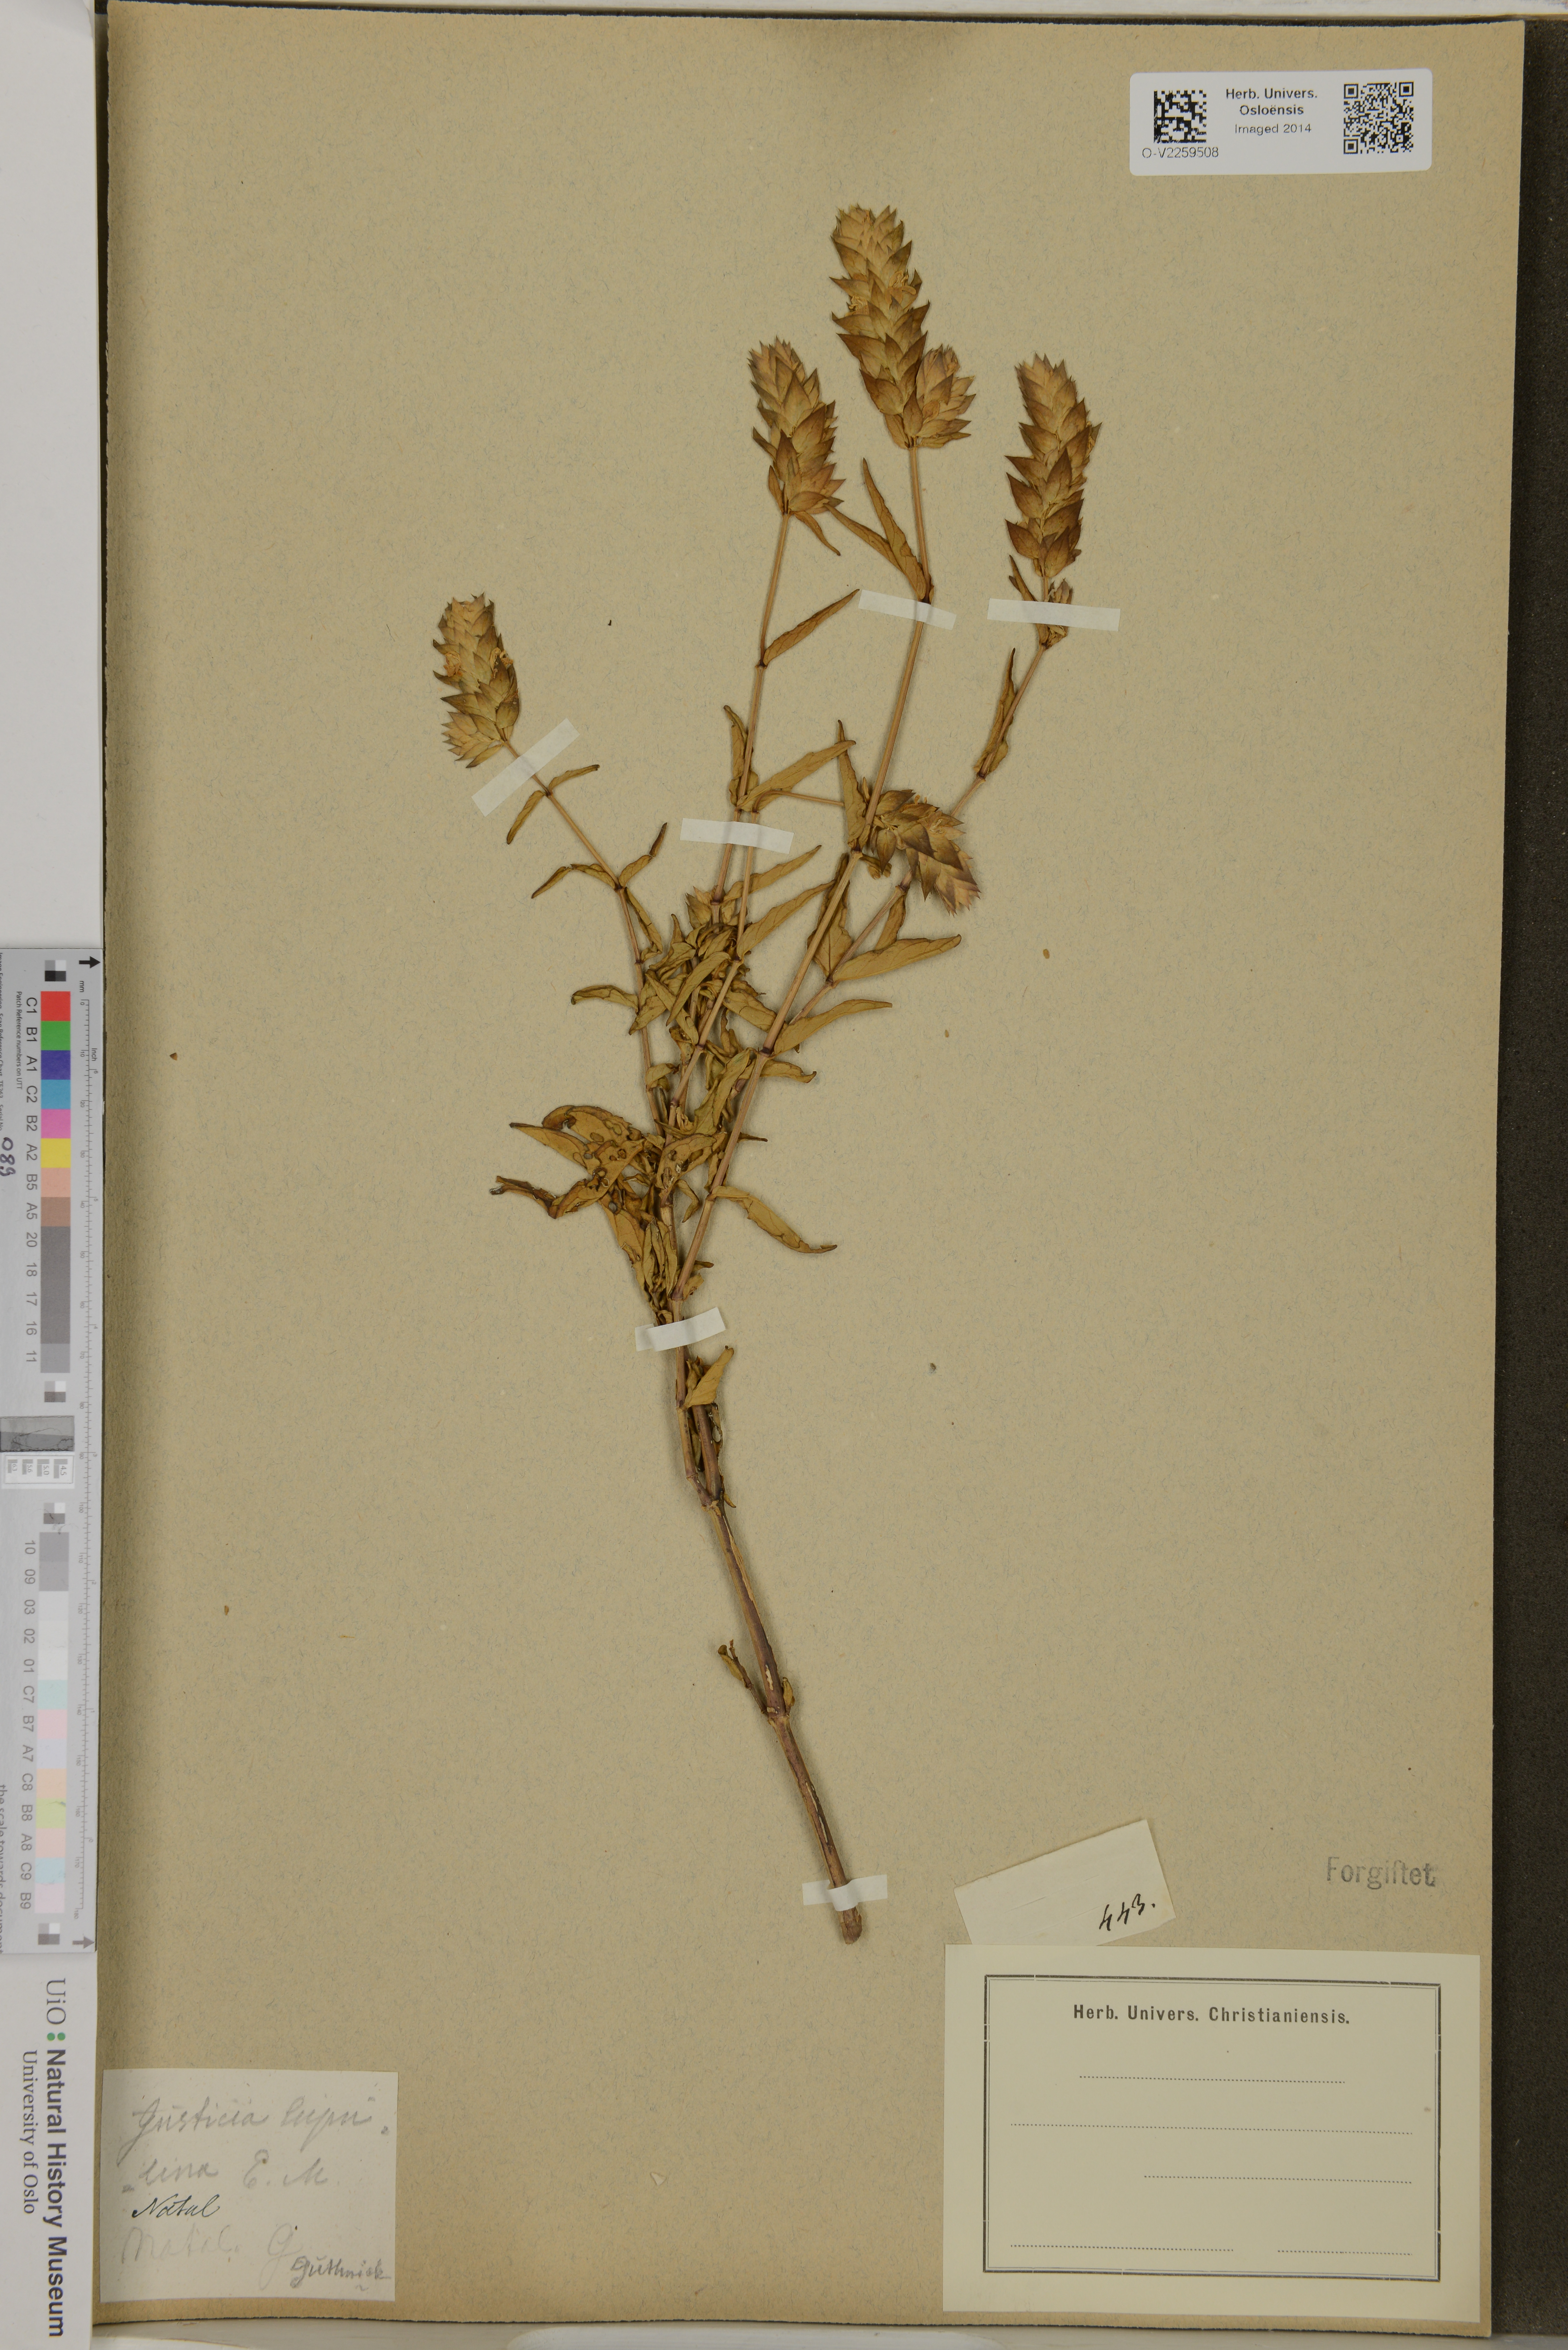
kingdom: Plantae
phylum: Tracheophyta
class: Magnoliopsida
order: Lamiales
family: Acanthaceae
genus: Justicia
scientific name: Justicia lupulina
